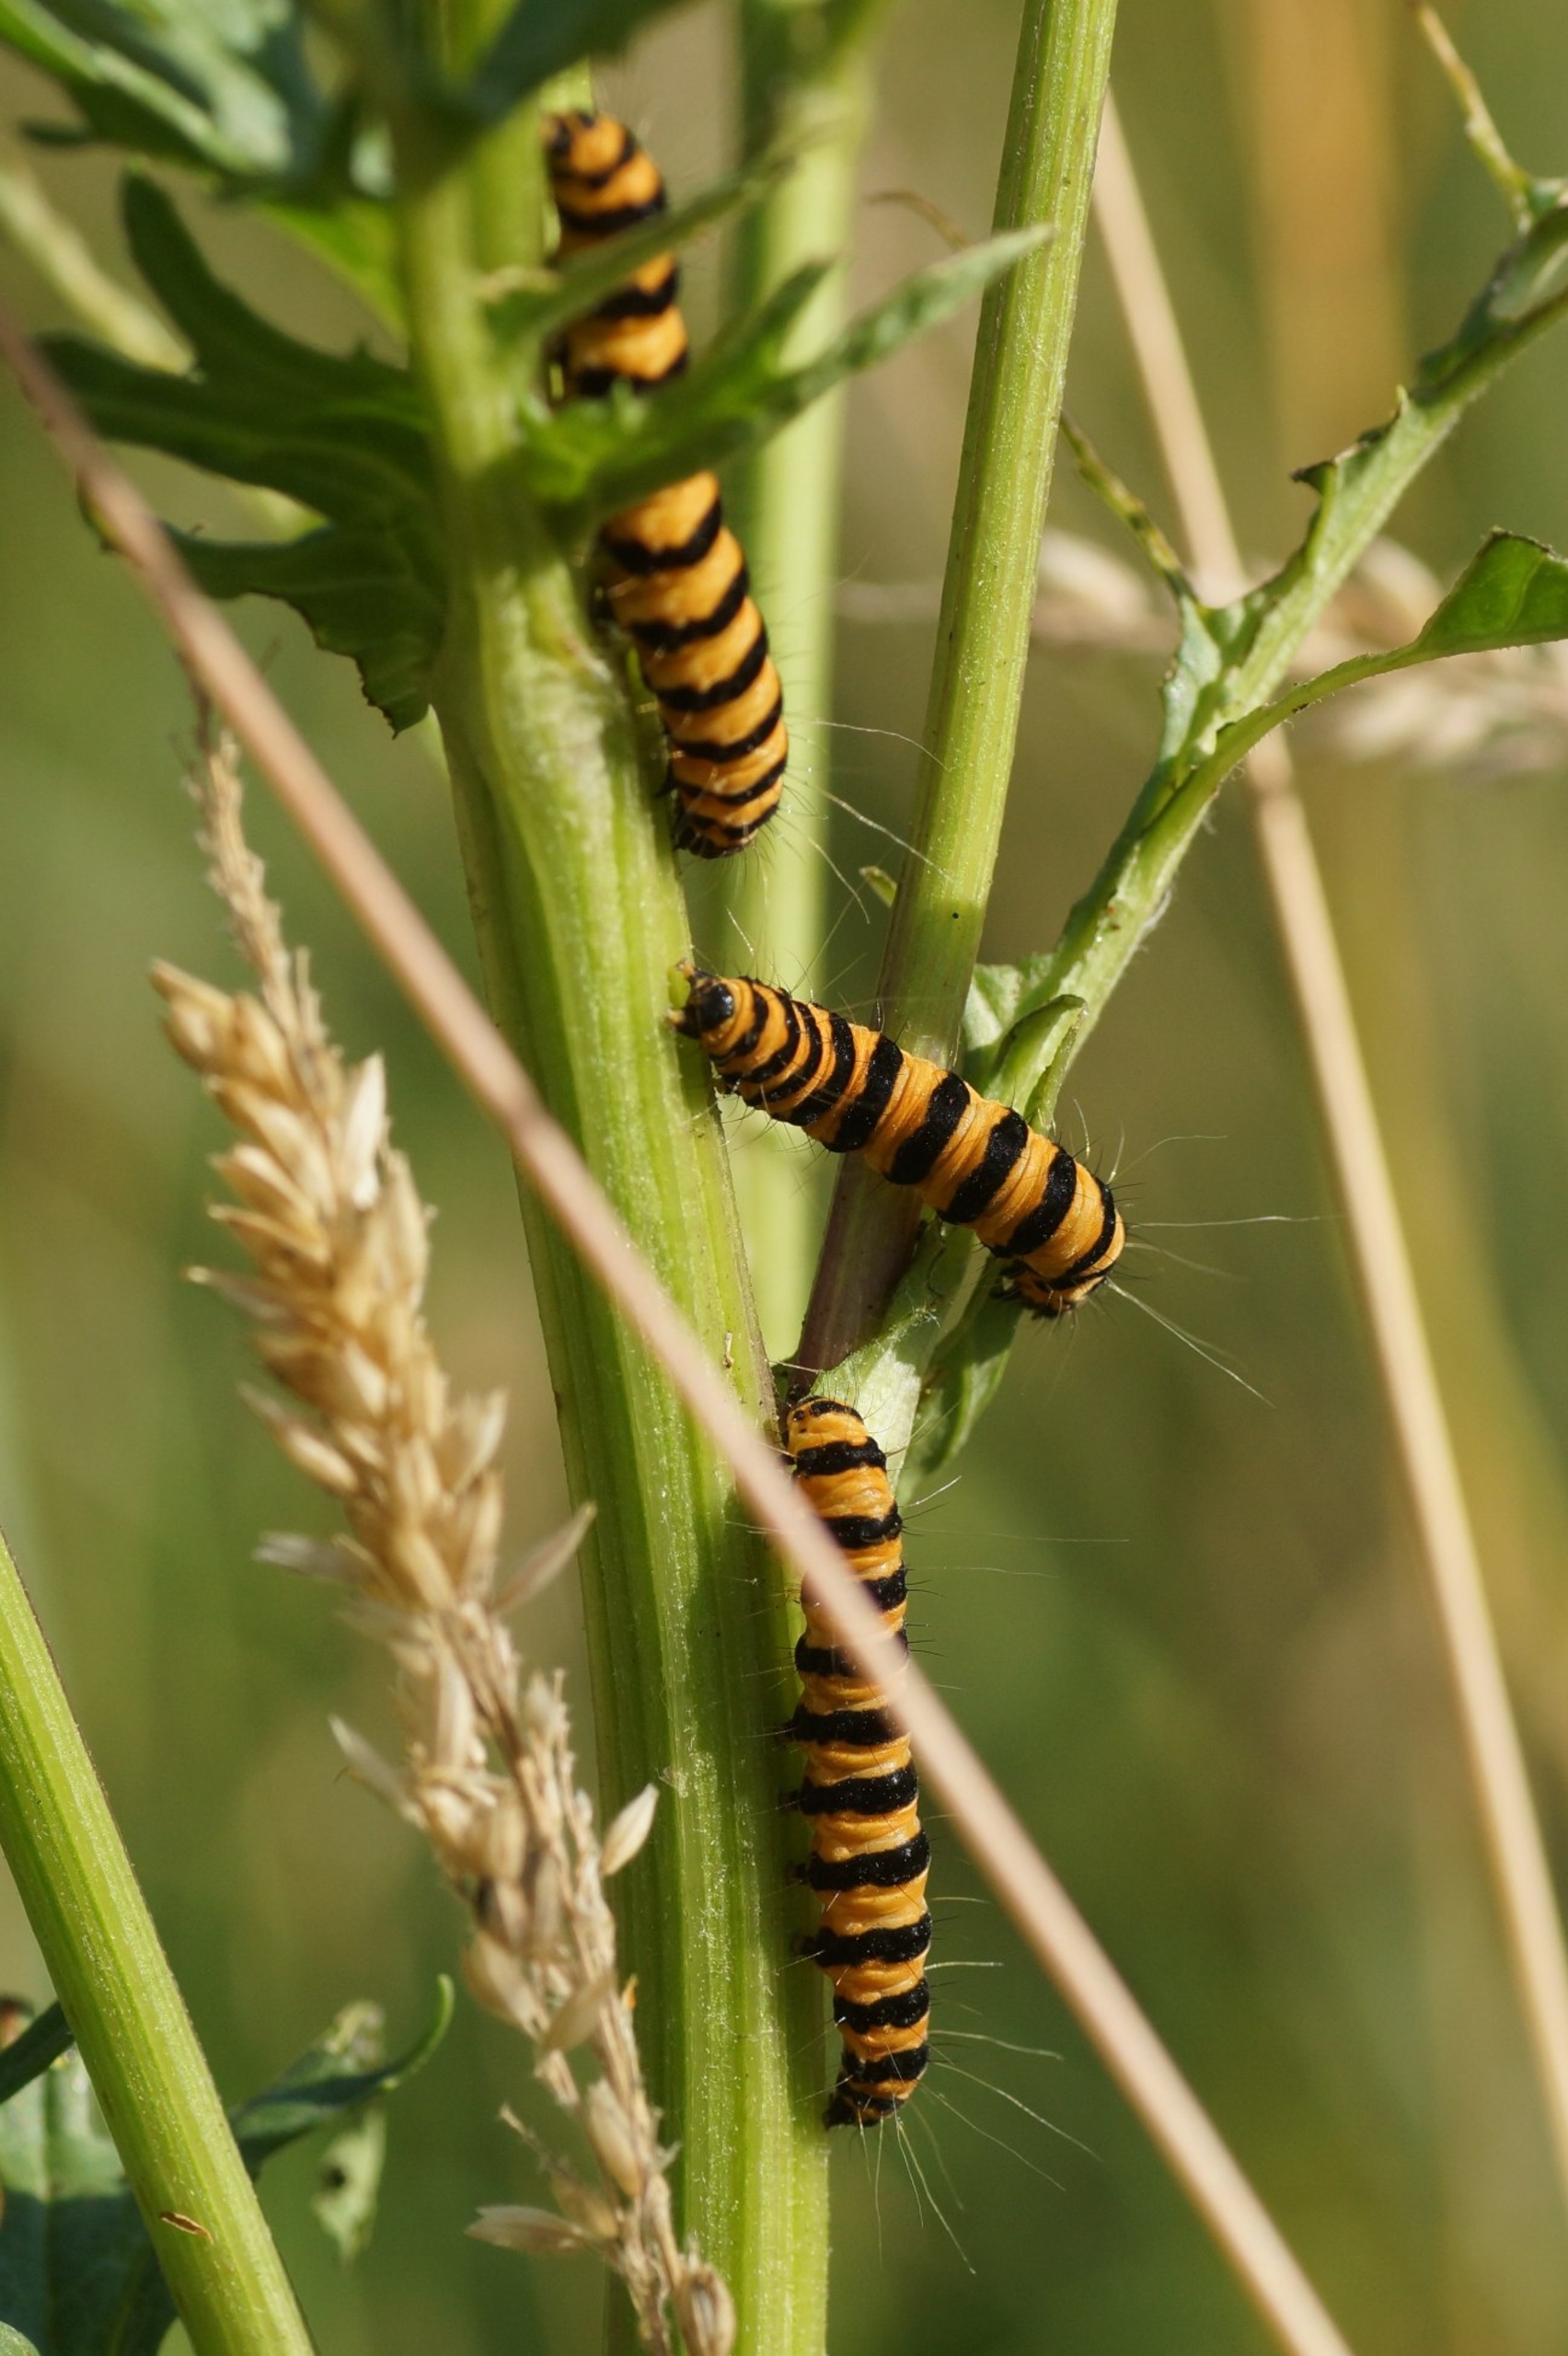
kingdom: Animalia
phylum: Arthropoda
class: Insecta
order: Lepidoptera
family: Erebidae
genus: Tyria
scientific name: Tyria jacobaeae
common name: Blodplet
